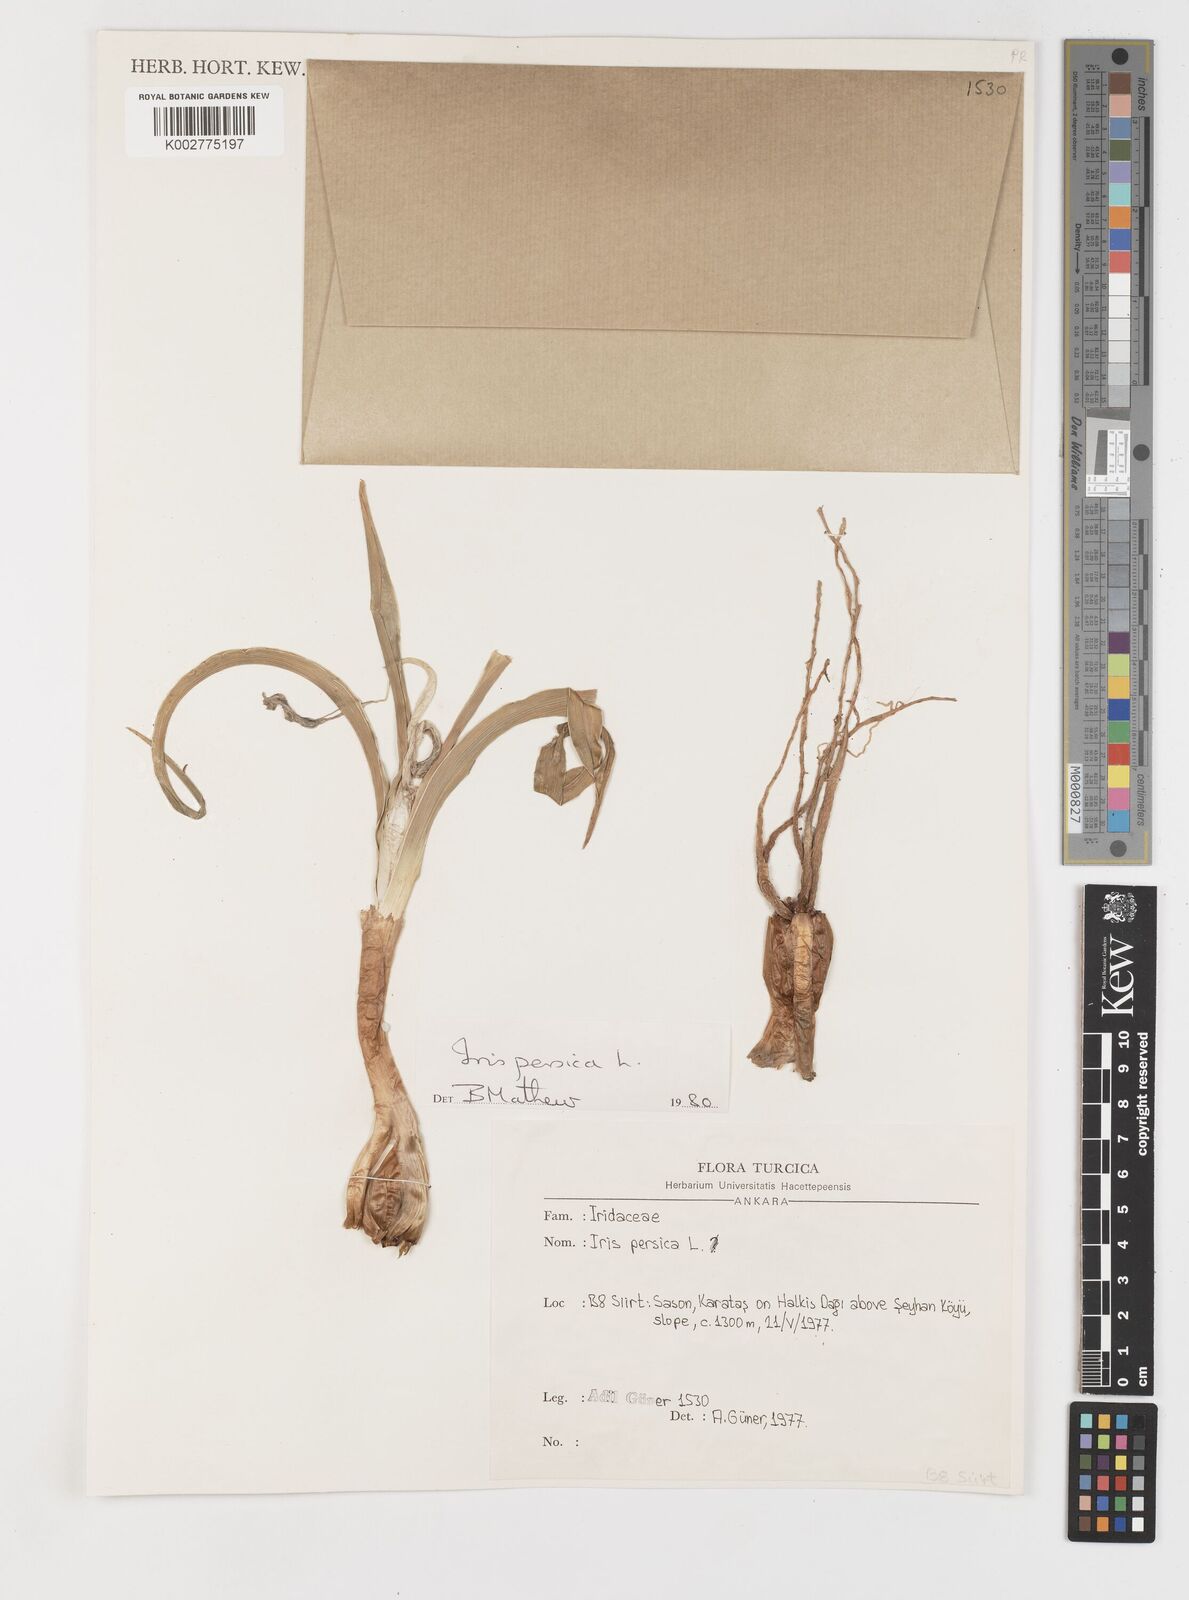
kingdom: Plantae
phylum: Tracheophyta
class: Liliopsida
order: Asparagales
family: Iridaceae
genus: Iris
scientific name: Iris persica
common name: Persian iris
